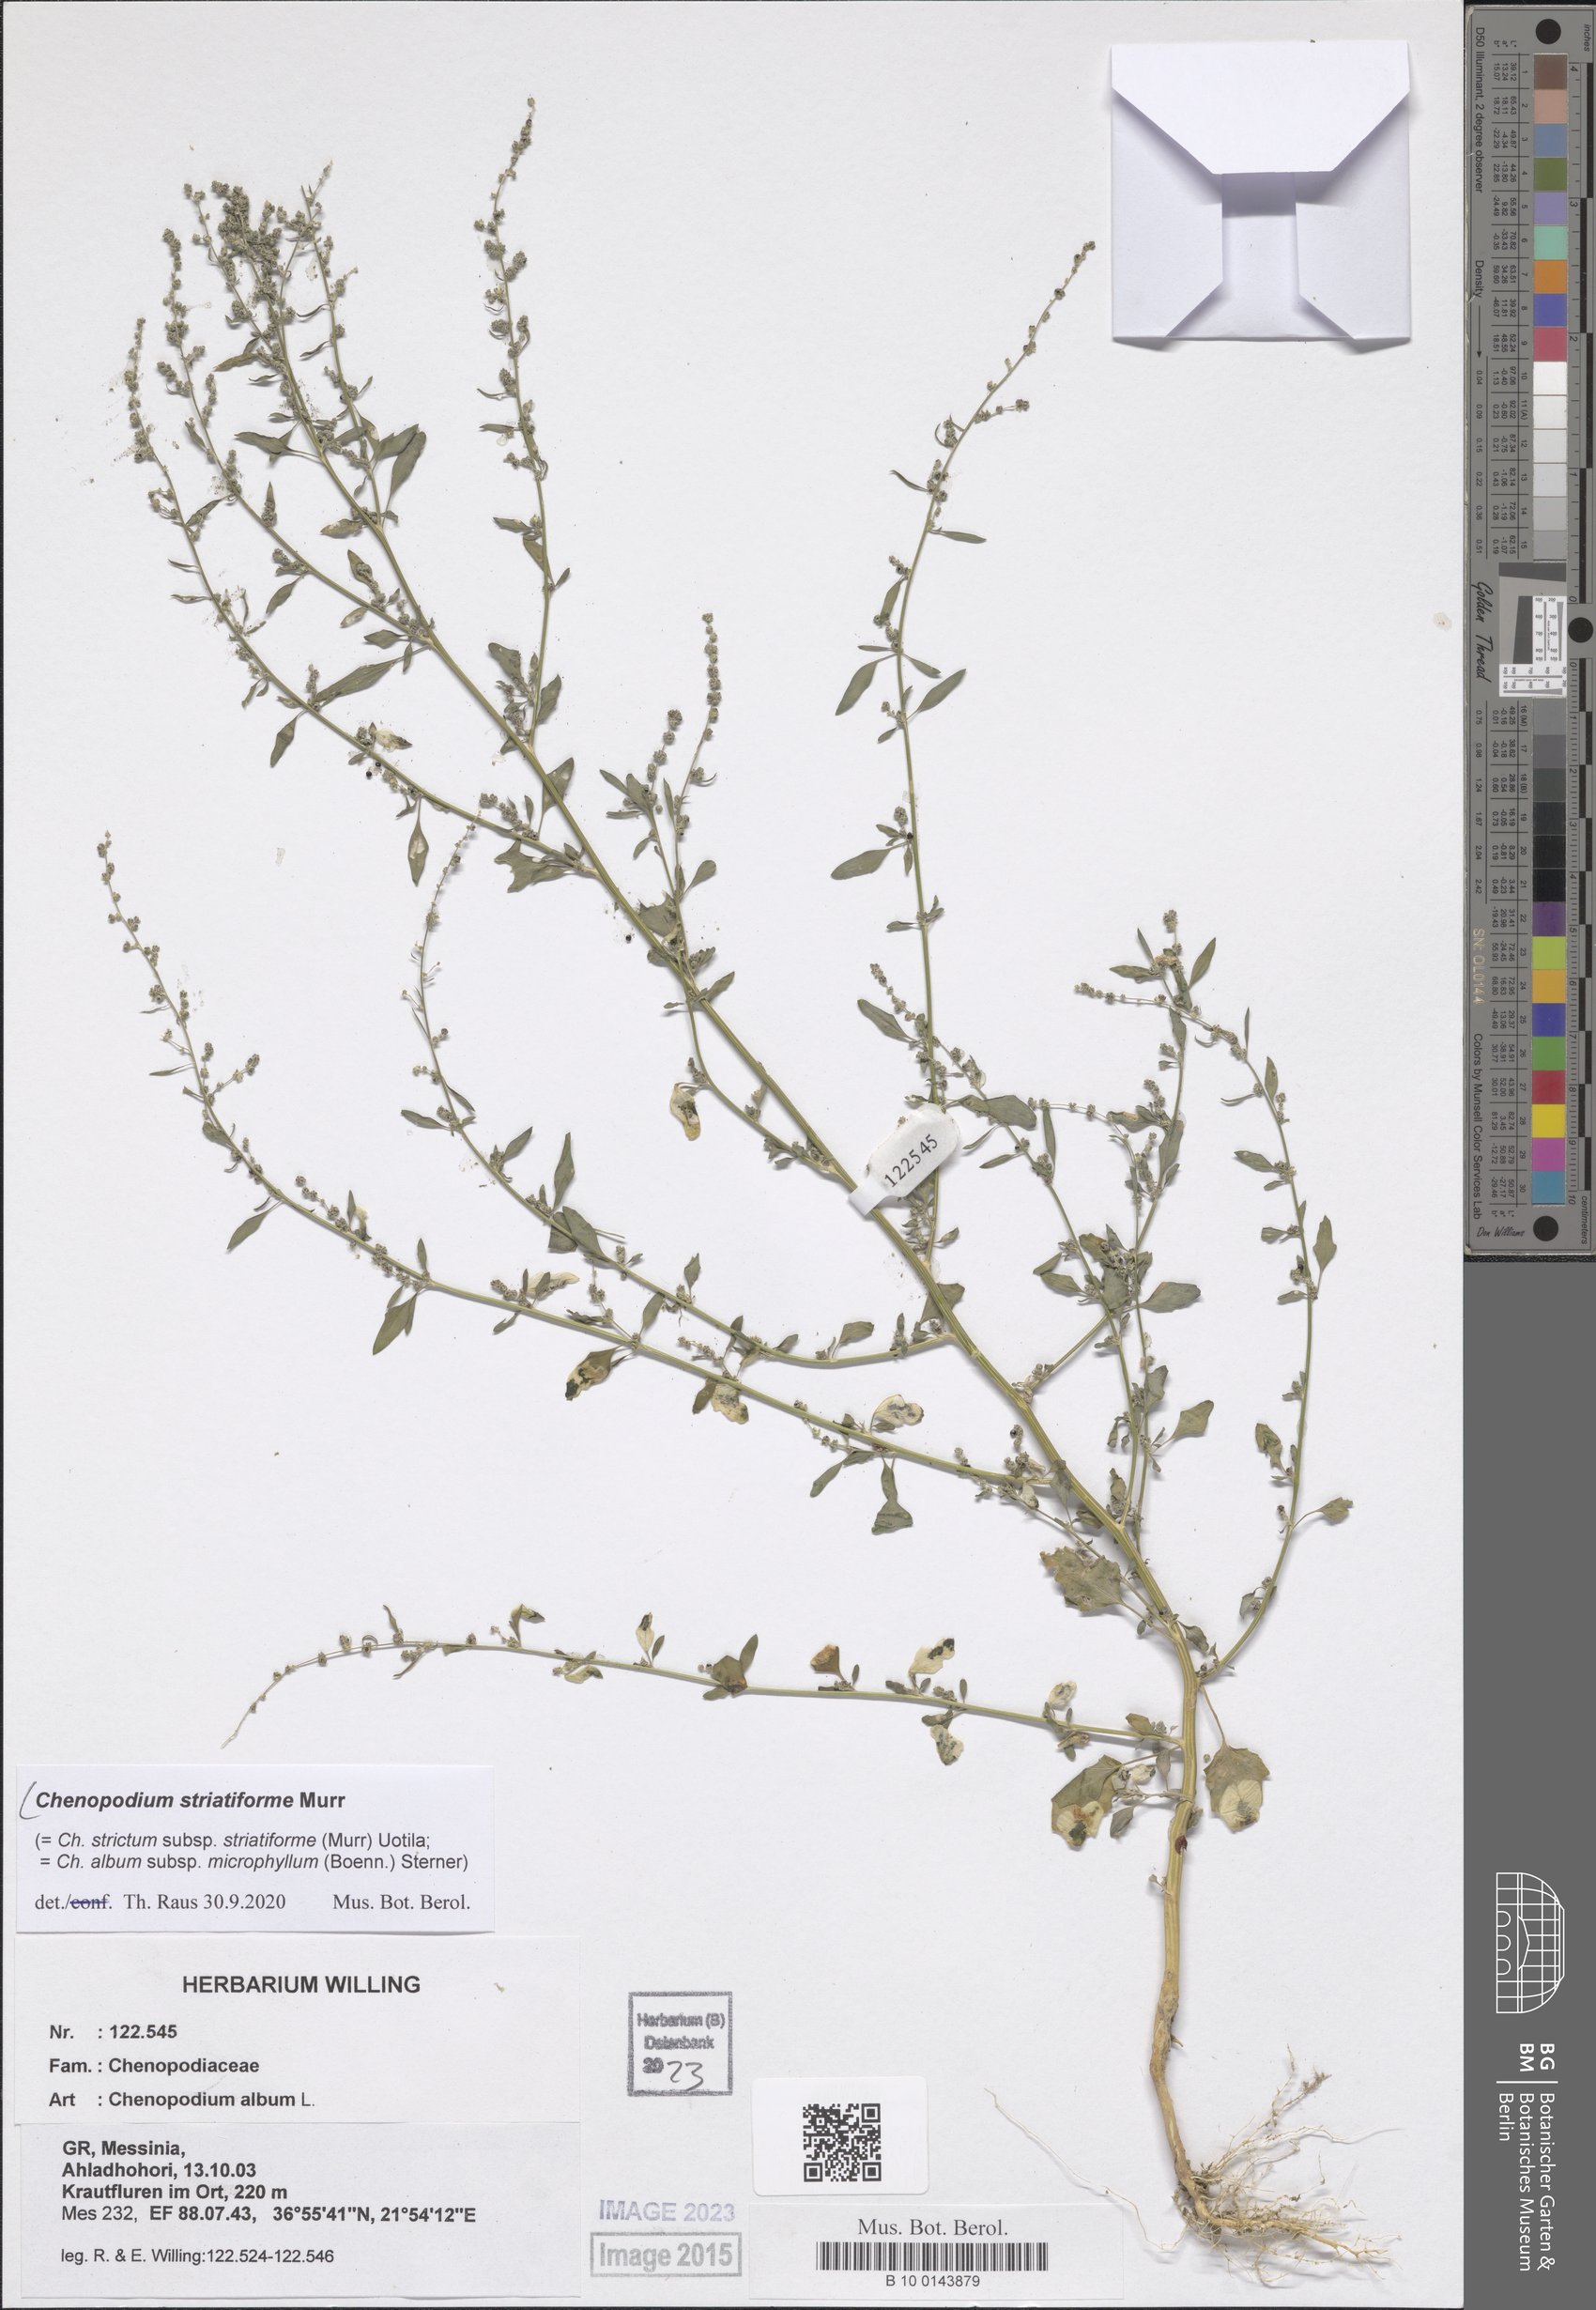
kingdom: Plantae
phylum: Tracheophyta
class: Magnoliopsida
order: Caryophyllales
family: Amaranthaceae
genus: Chenopodium
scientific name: Chenopodium striatiforme
